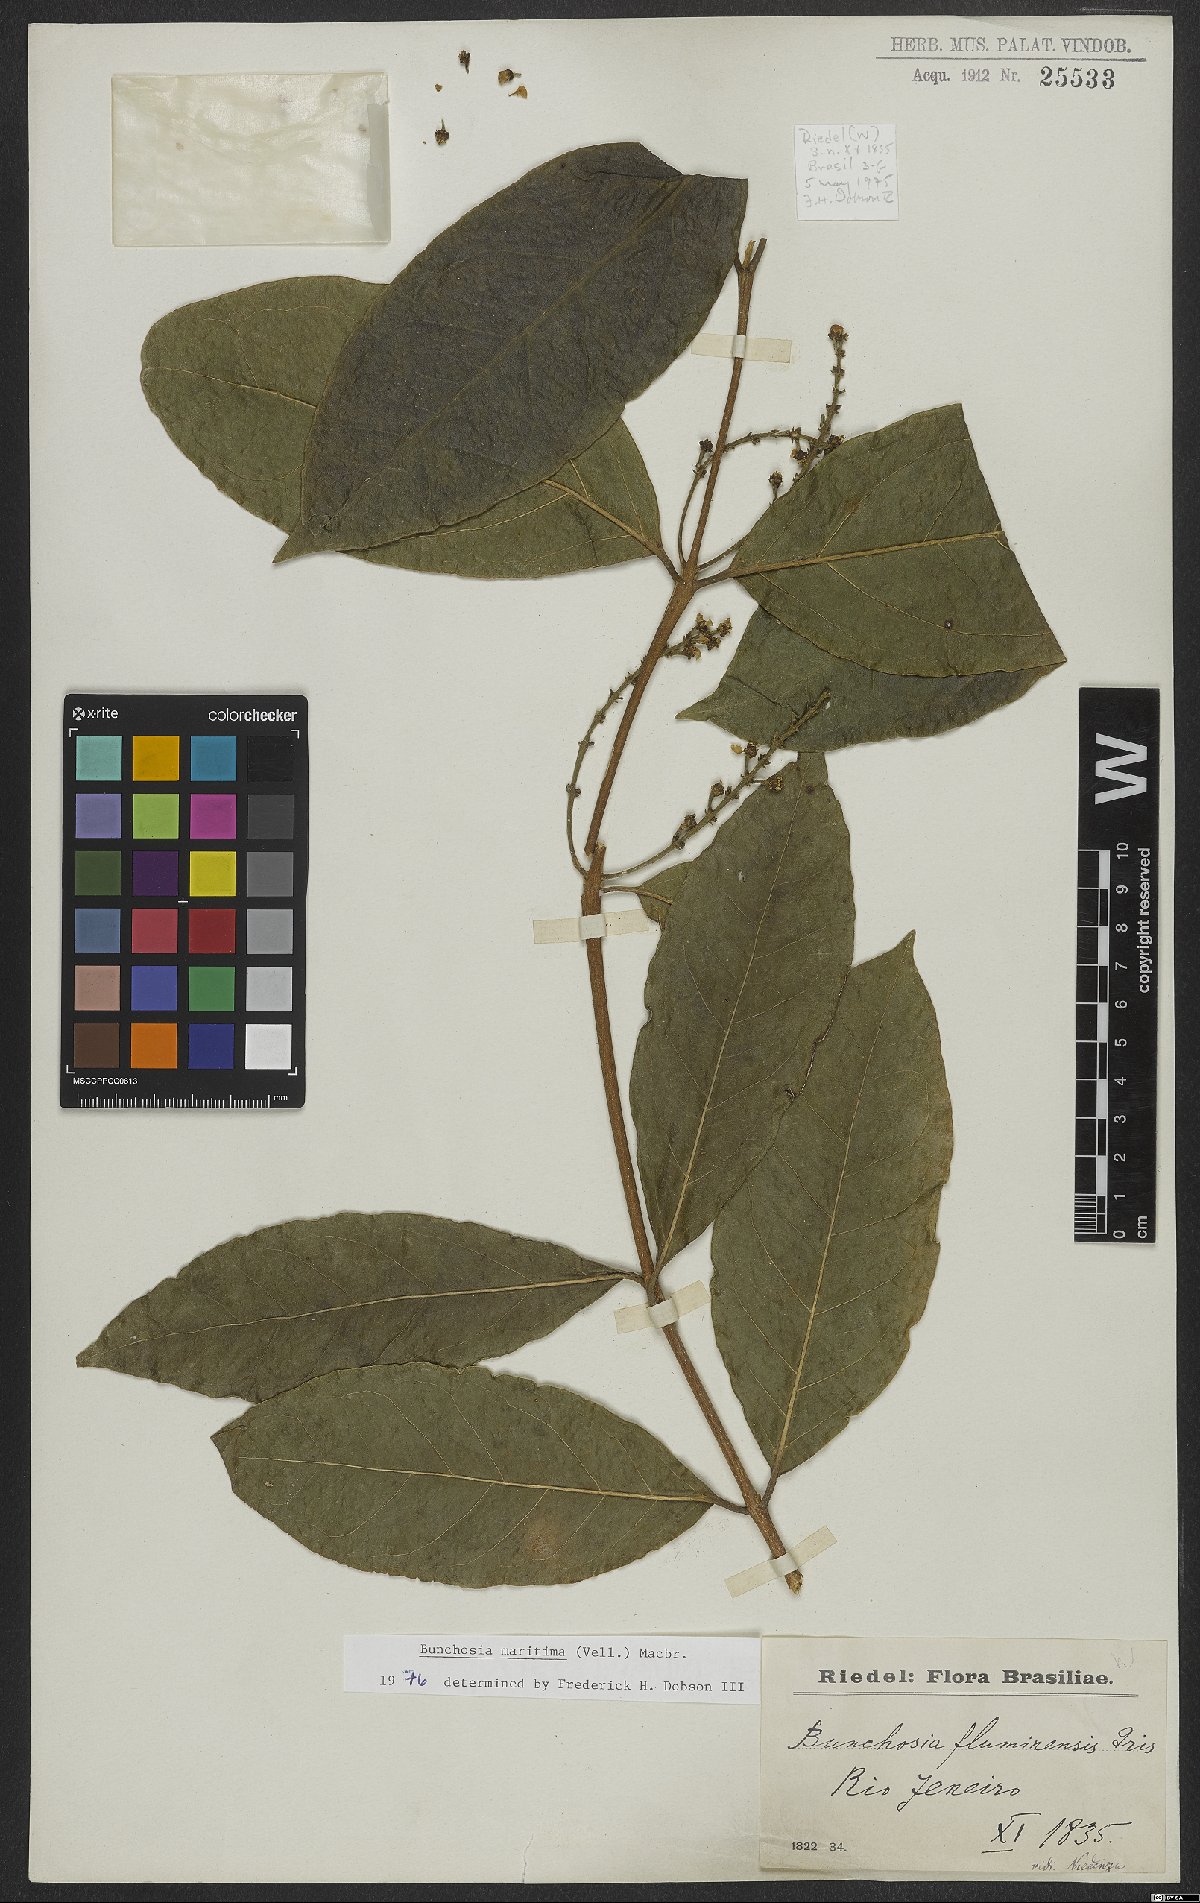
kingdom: Plantae
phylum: Tracheophyta
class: Magnoliopsida
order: Malpighiales
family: Malpighiaceae
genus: Bunchosia
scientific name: Bunchosia maritima
